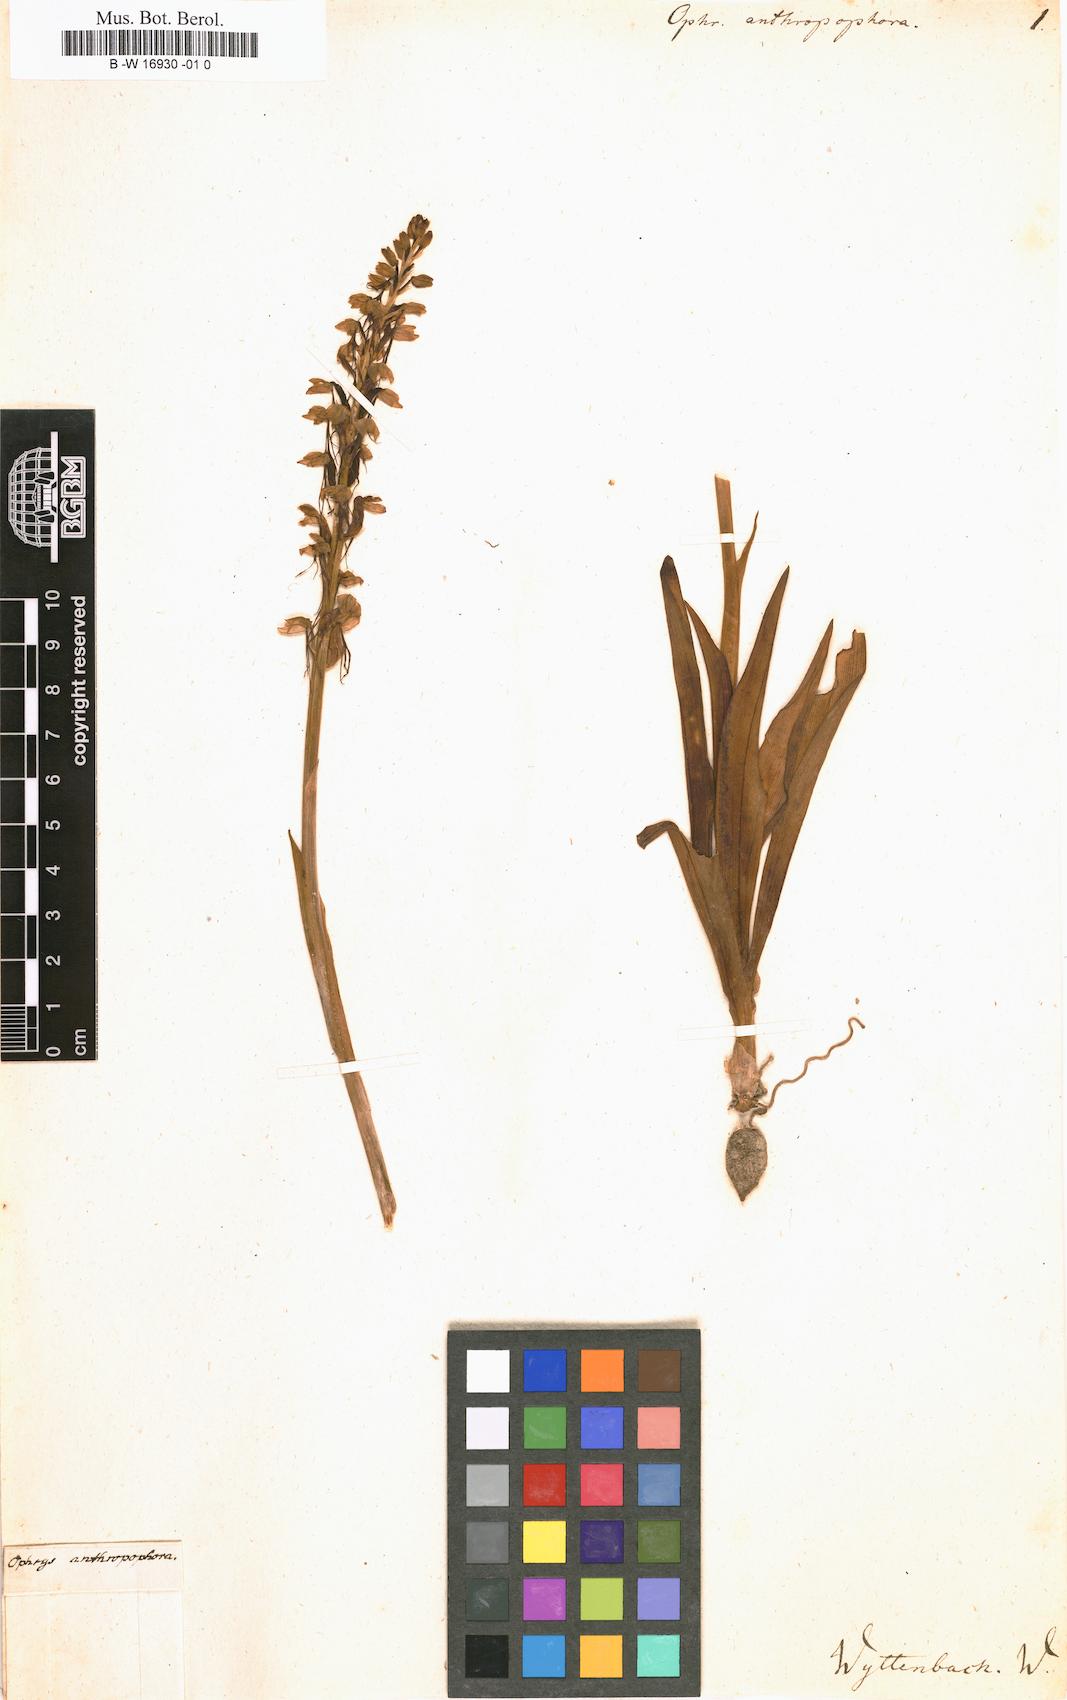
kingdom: Plantae
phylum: Tracheophyta
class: Liliopsida
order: Asparagales
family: Orchidaceae
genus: Orchis
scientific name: Orchis anthropophora
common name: Man orchid
